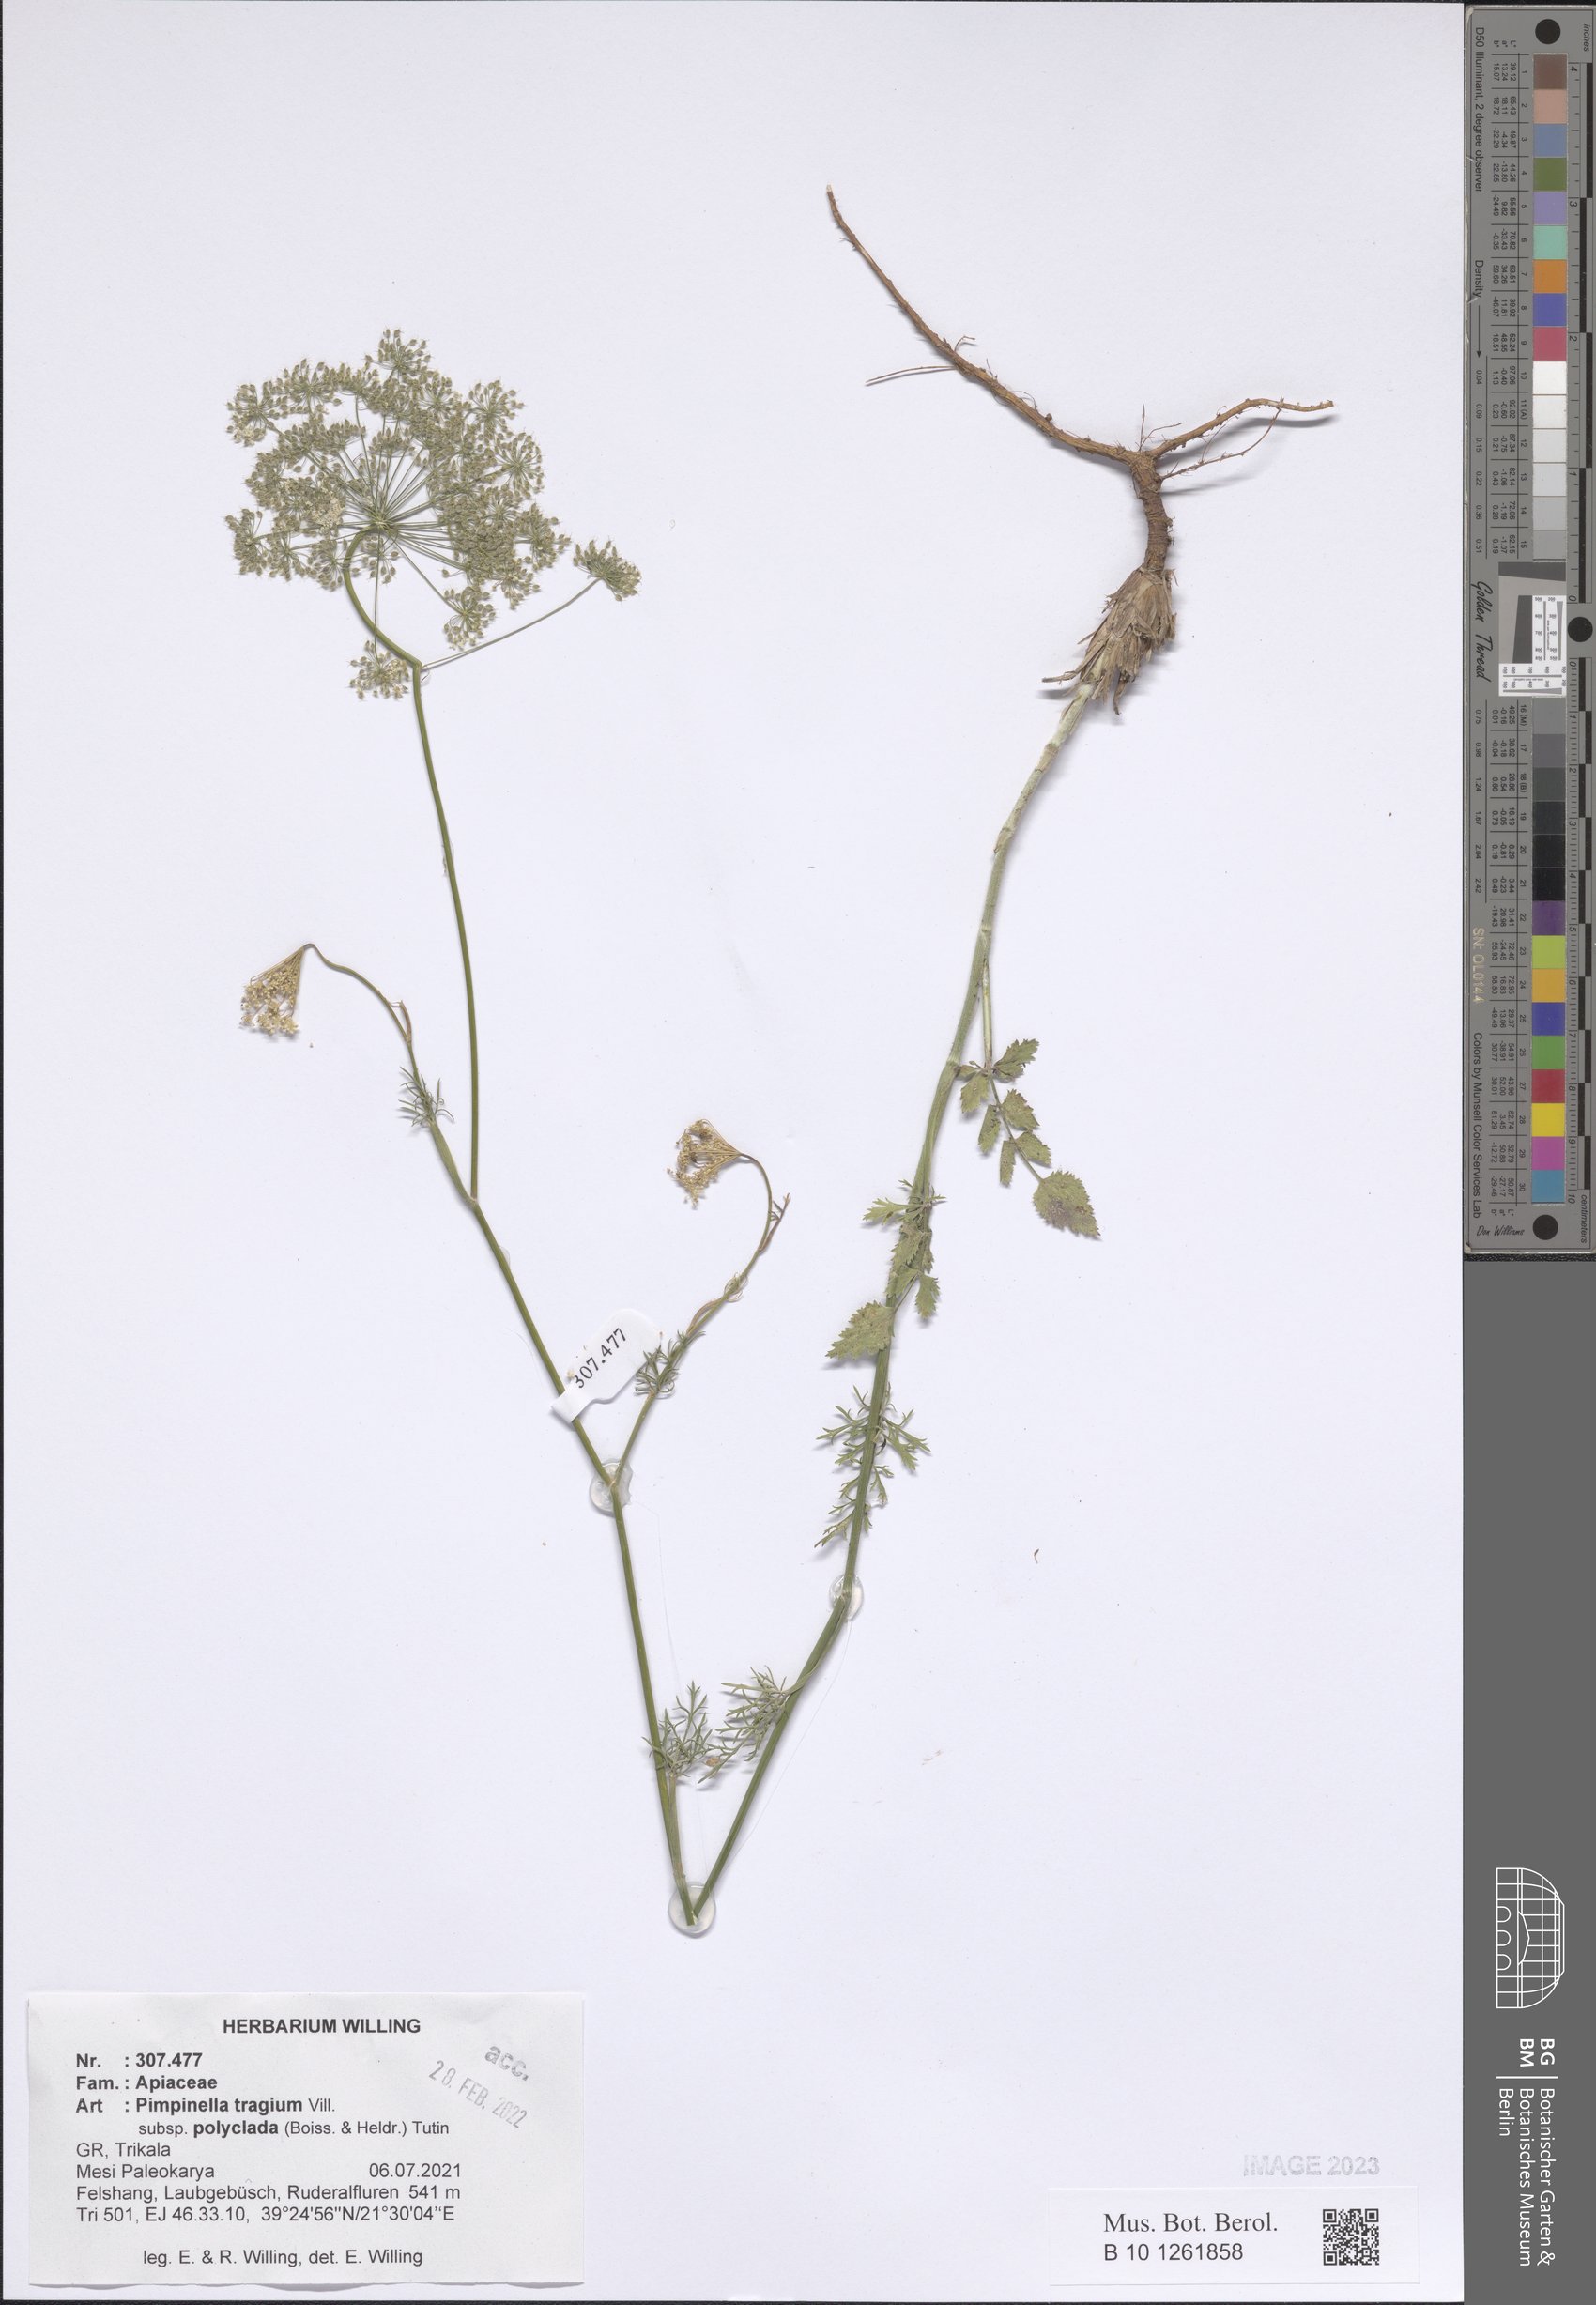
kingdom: Plantae
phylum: Tracheophyta
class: Magnoliopsida
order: Apiales
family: Apiaceae
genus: Pimpinella
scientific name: Pimpinella tragium
